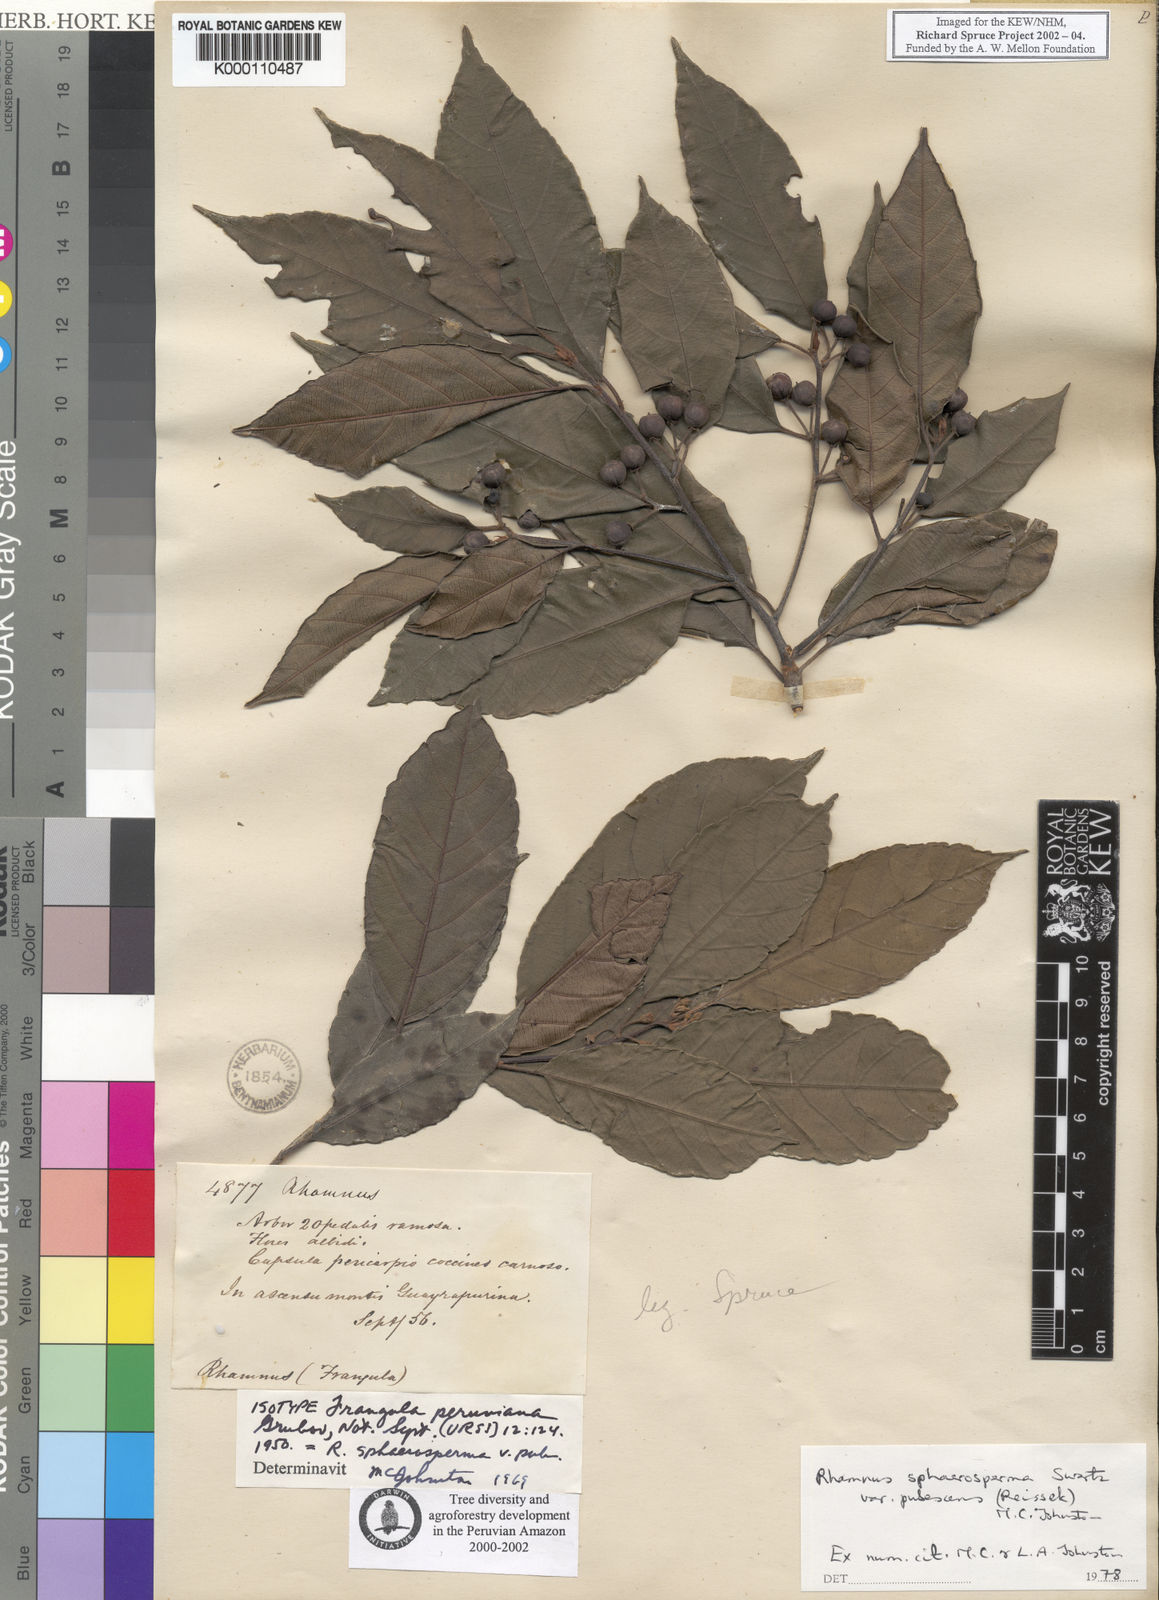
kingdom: Plantae
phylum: Tracheophyta
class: Magnoliopsida
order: Rosales
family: Rhamnaceae
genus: Frangula
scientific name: Frangula
